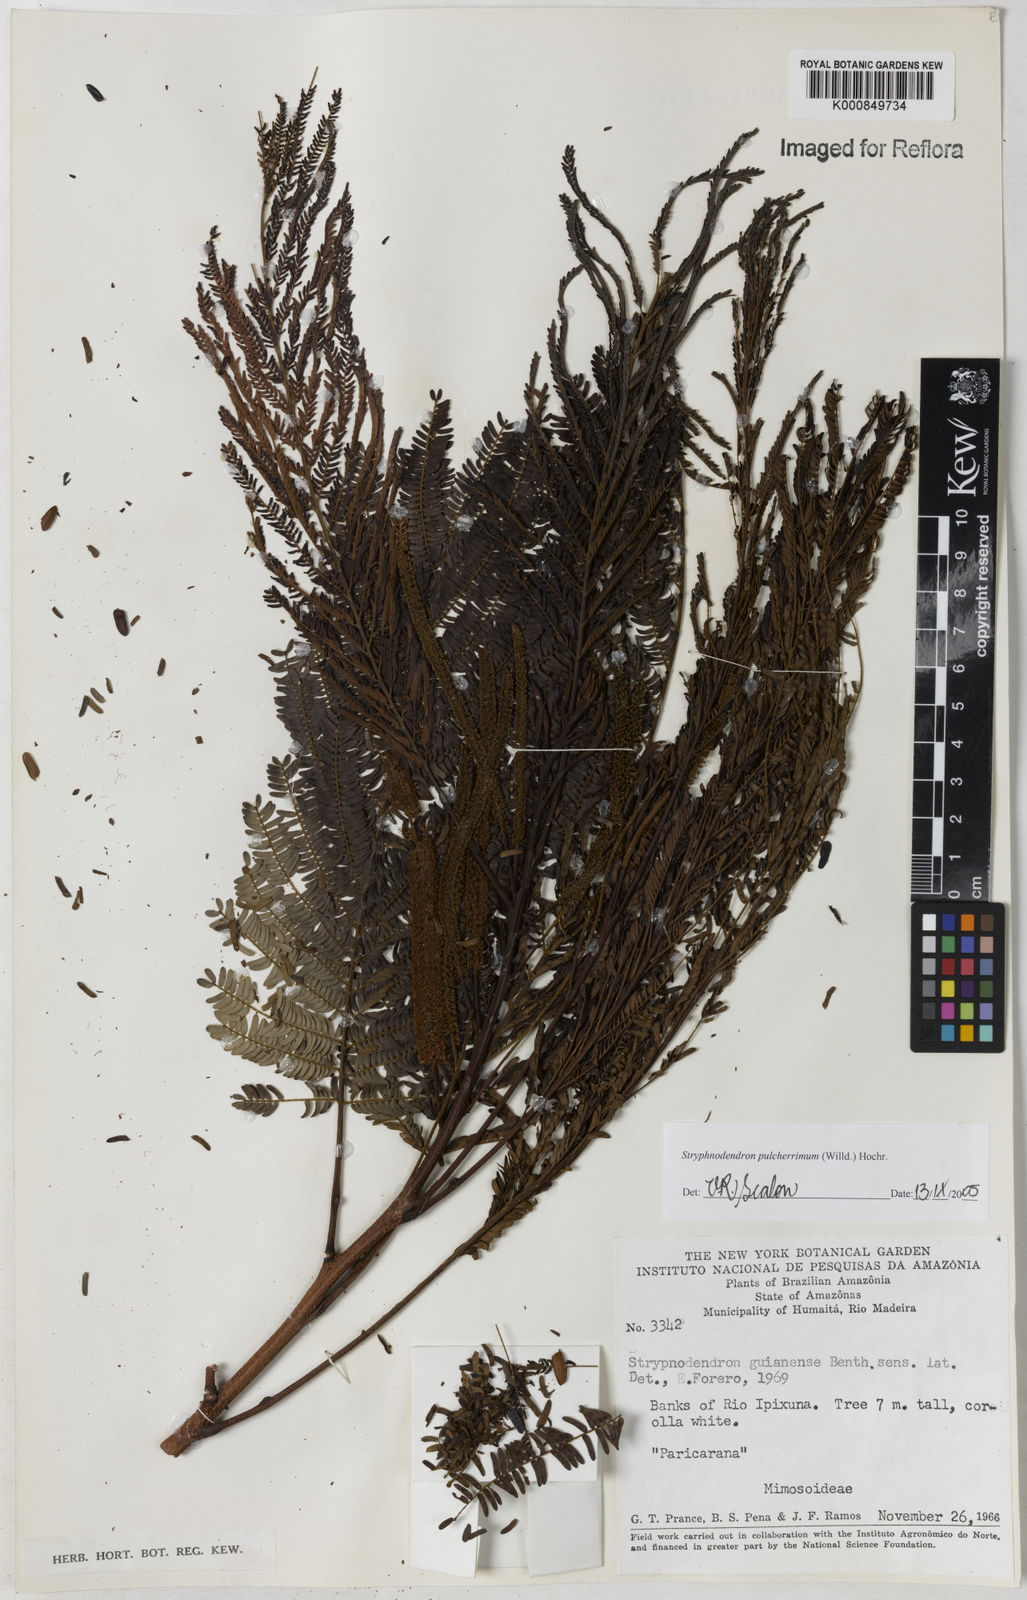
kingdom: Plantae
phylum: Tracheophyta
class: Magnoliopsida
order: Fabales
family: Fabaceae
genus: Stryphnodendron
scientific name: Stryphnodendron pulcherrimum
